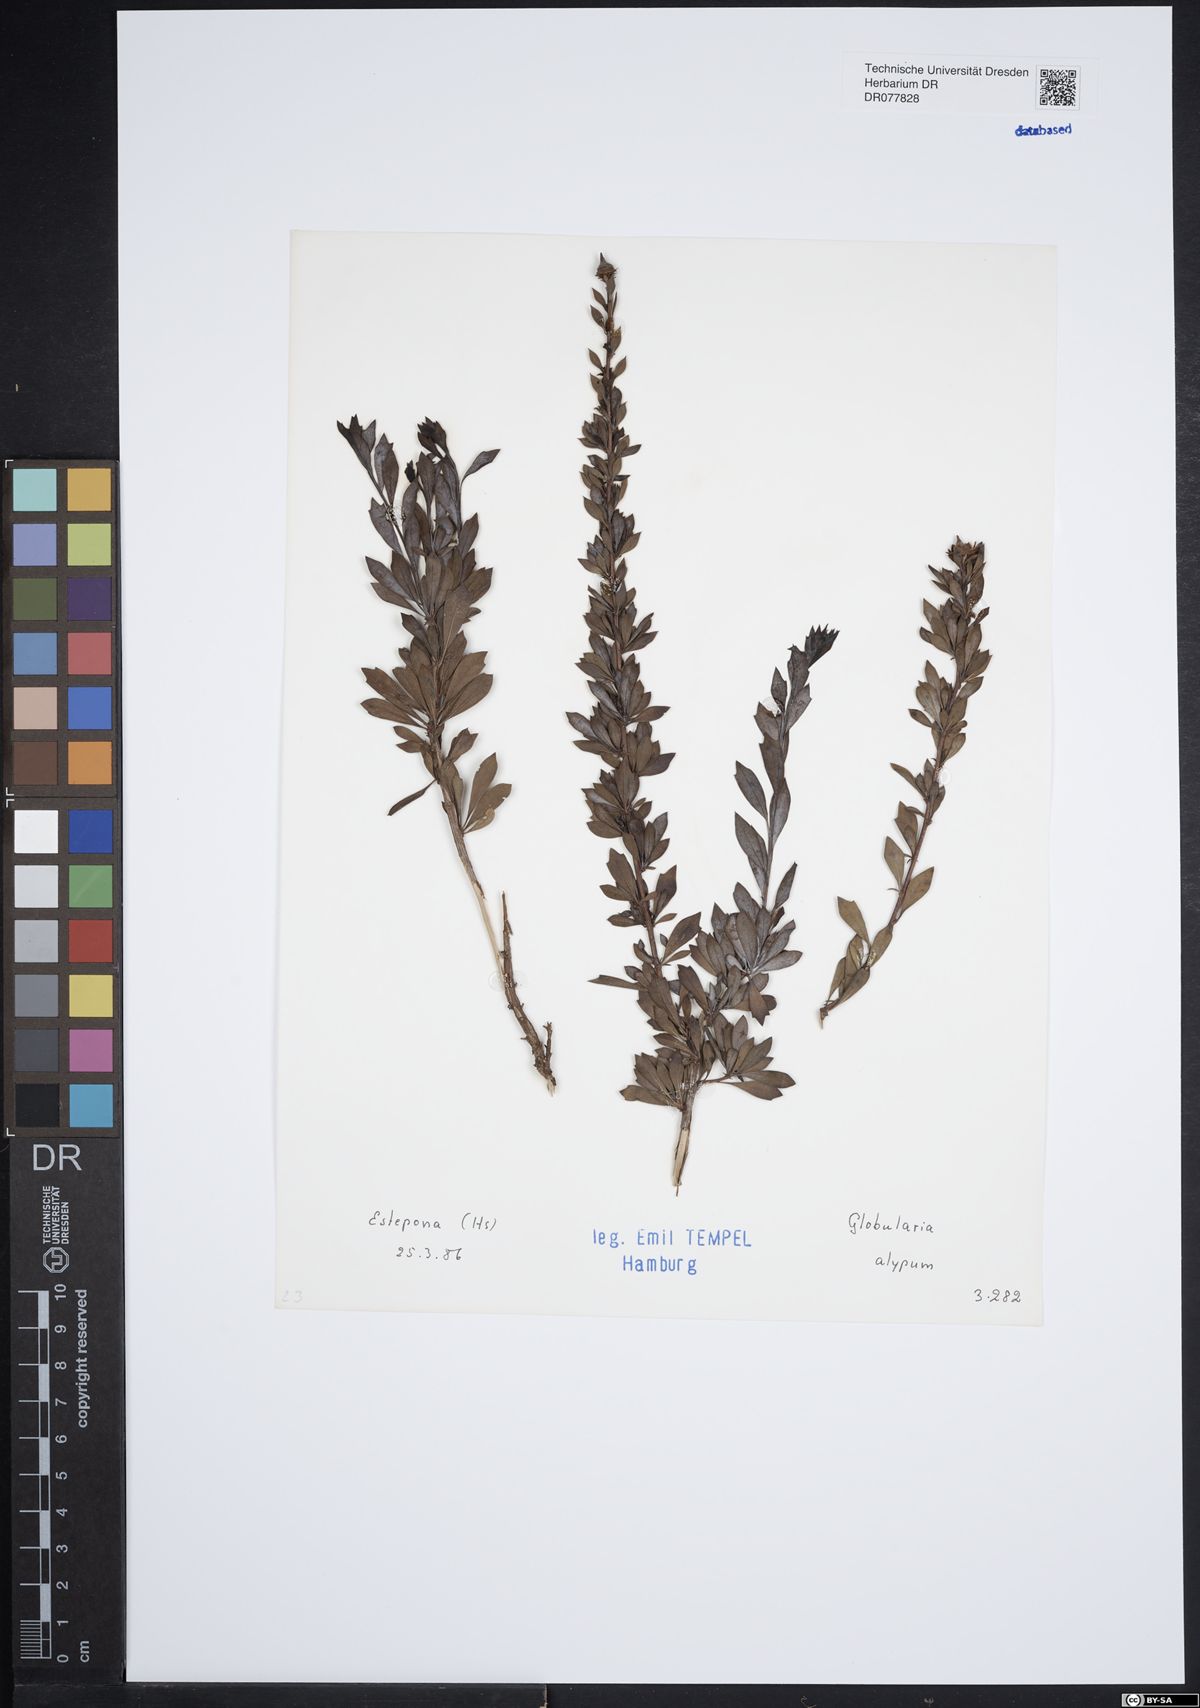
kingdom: Plantae
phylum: Tracheophyta
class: Magnoliopsida
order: Lamiales
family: Plantaginaceae
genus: Globularia
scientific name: Globularia alypum
